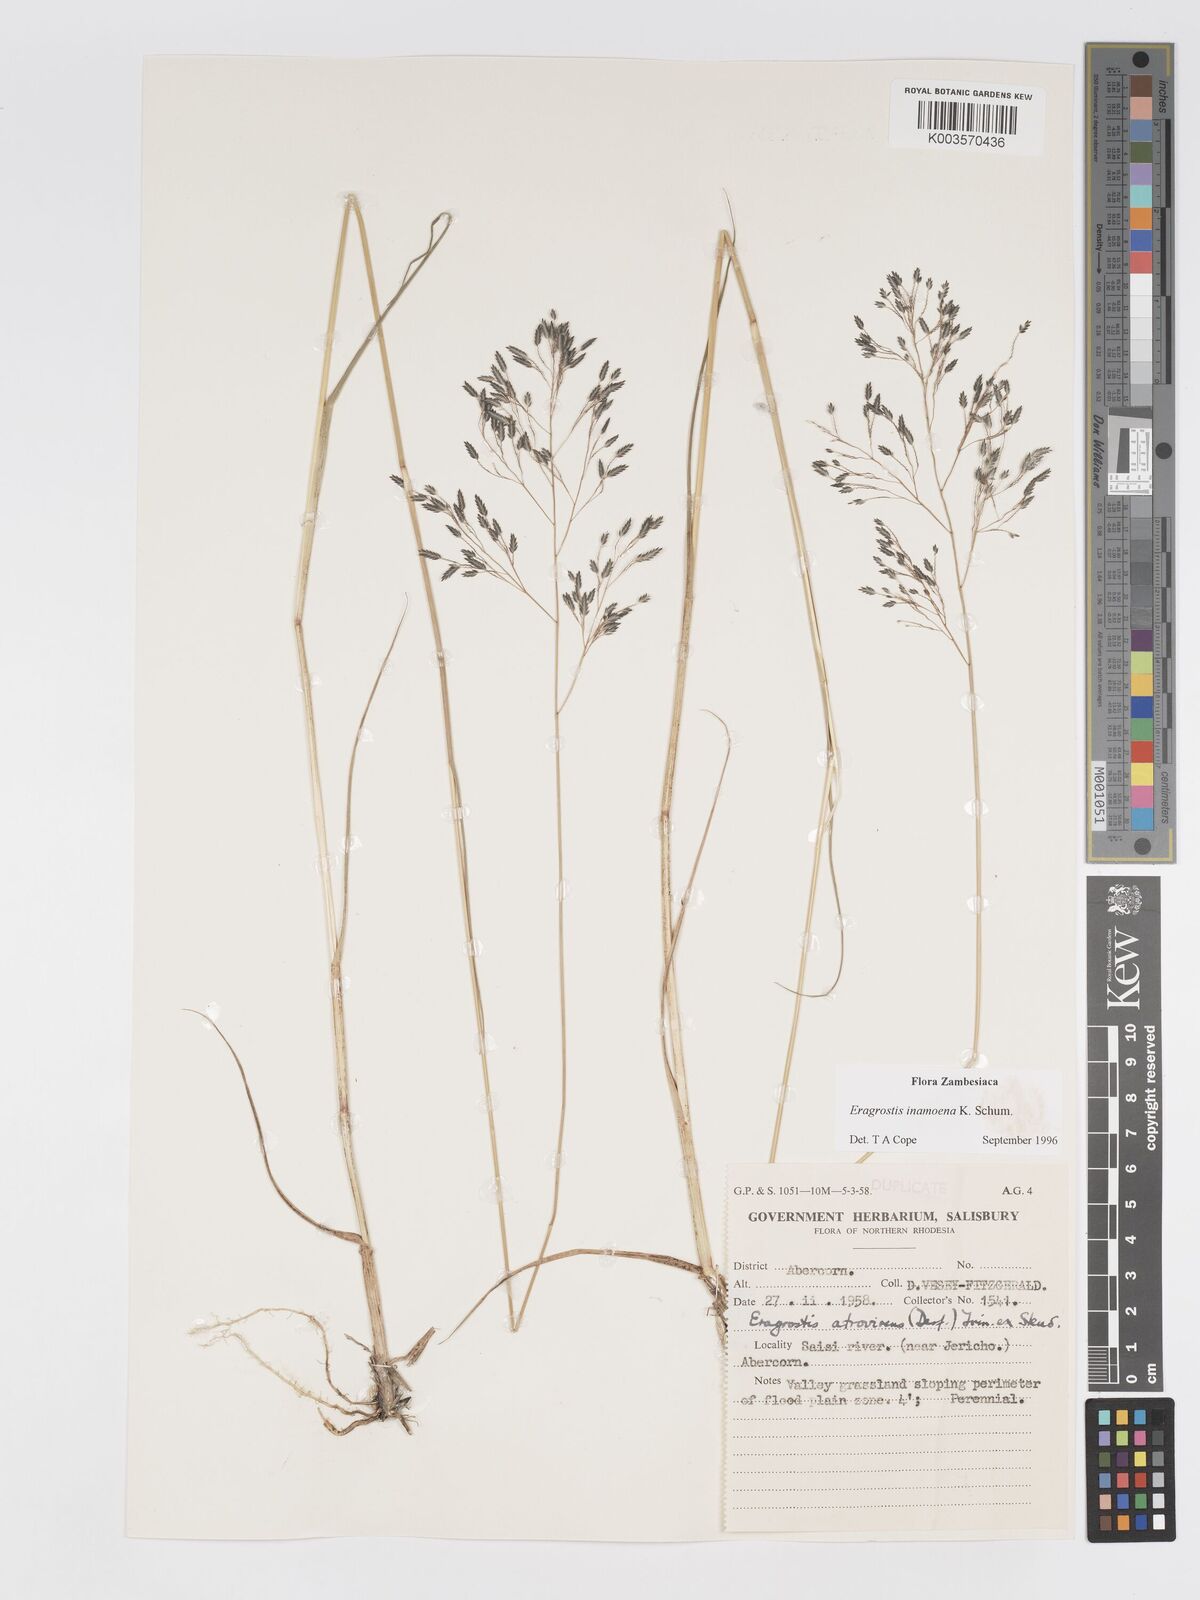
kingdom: Plantae
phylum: Tracheophyta
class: Liliopsida
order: Poales
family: Poaceae
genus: Eragrostis
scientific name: Eragrostis inamoena
